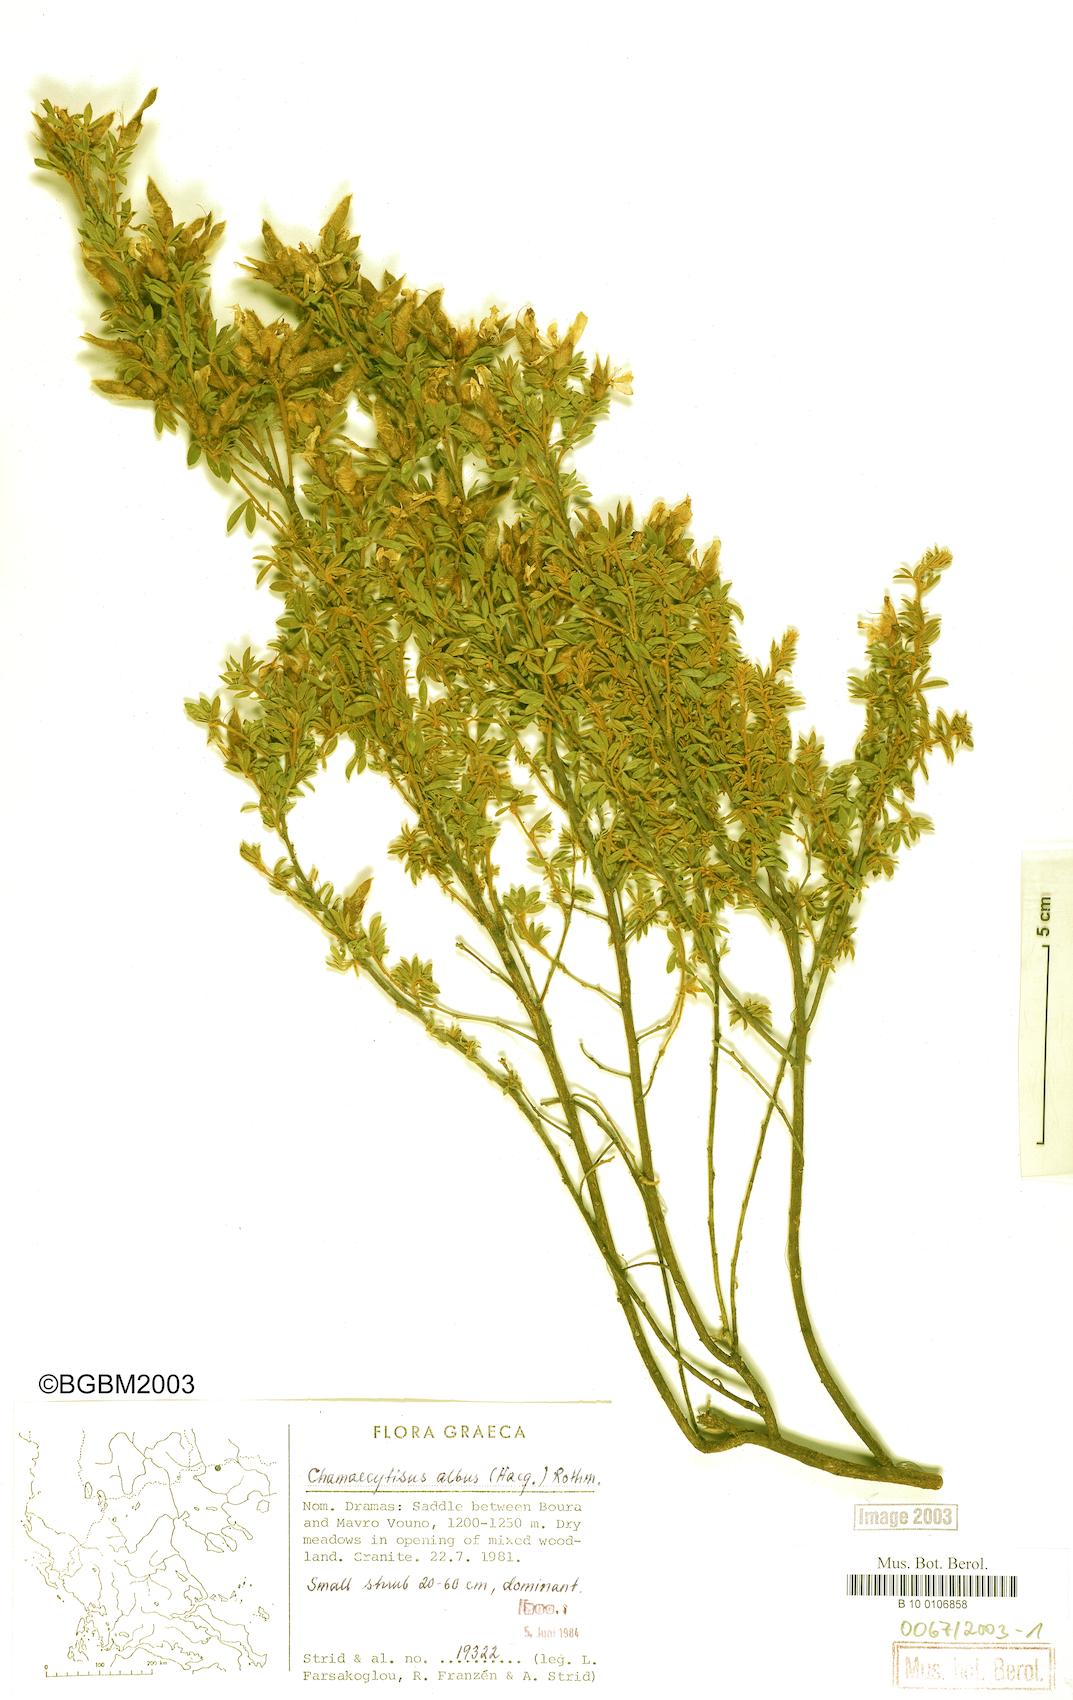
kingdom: Plantae
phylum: Tracheophyta
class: Magnoliopsida
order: Fabales
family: Fabaceae
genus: Chamaecytisus
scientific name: Chamaecytisus albus
